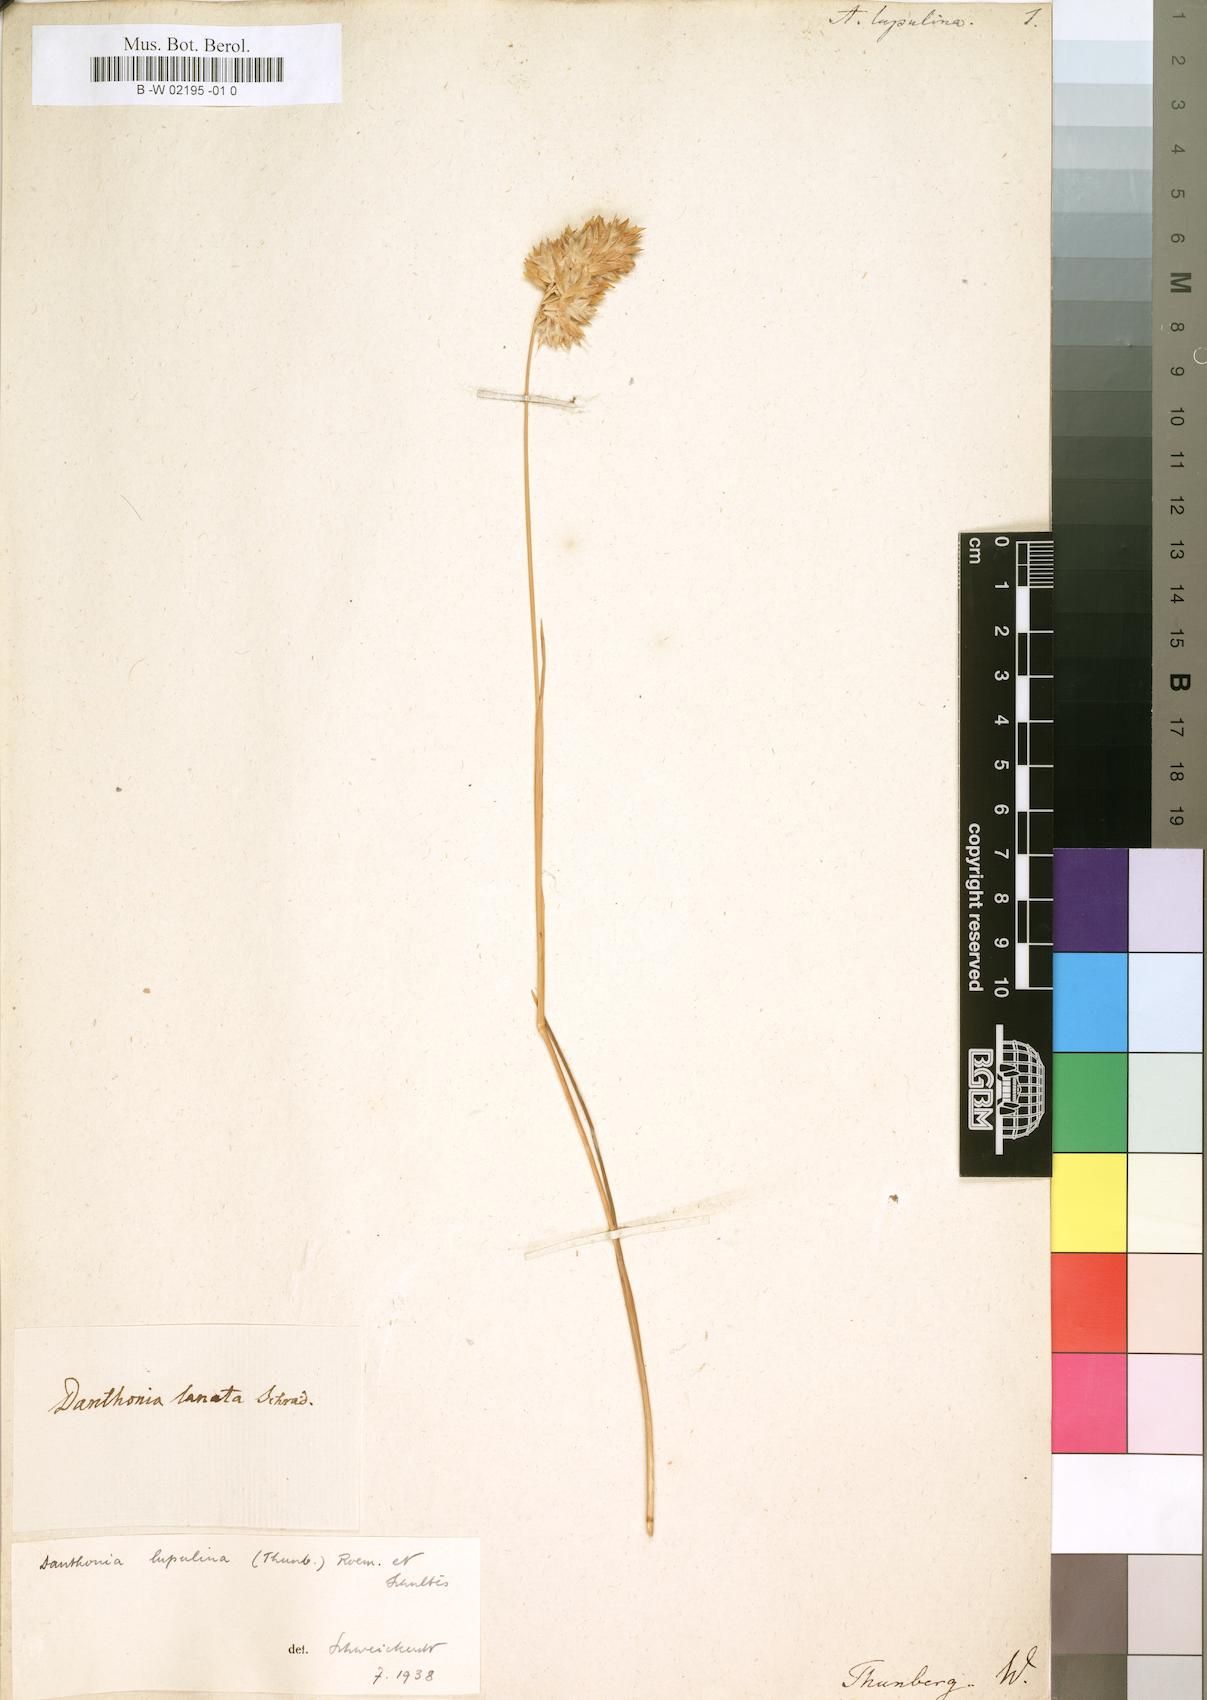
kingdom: Plantae
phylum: Tracheophyta
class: Liliopsida
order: Poales
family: Poaceae
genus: Geochloa
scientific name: Geochloa lupulina
